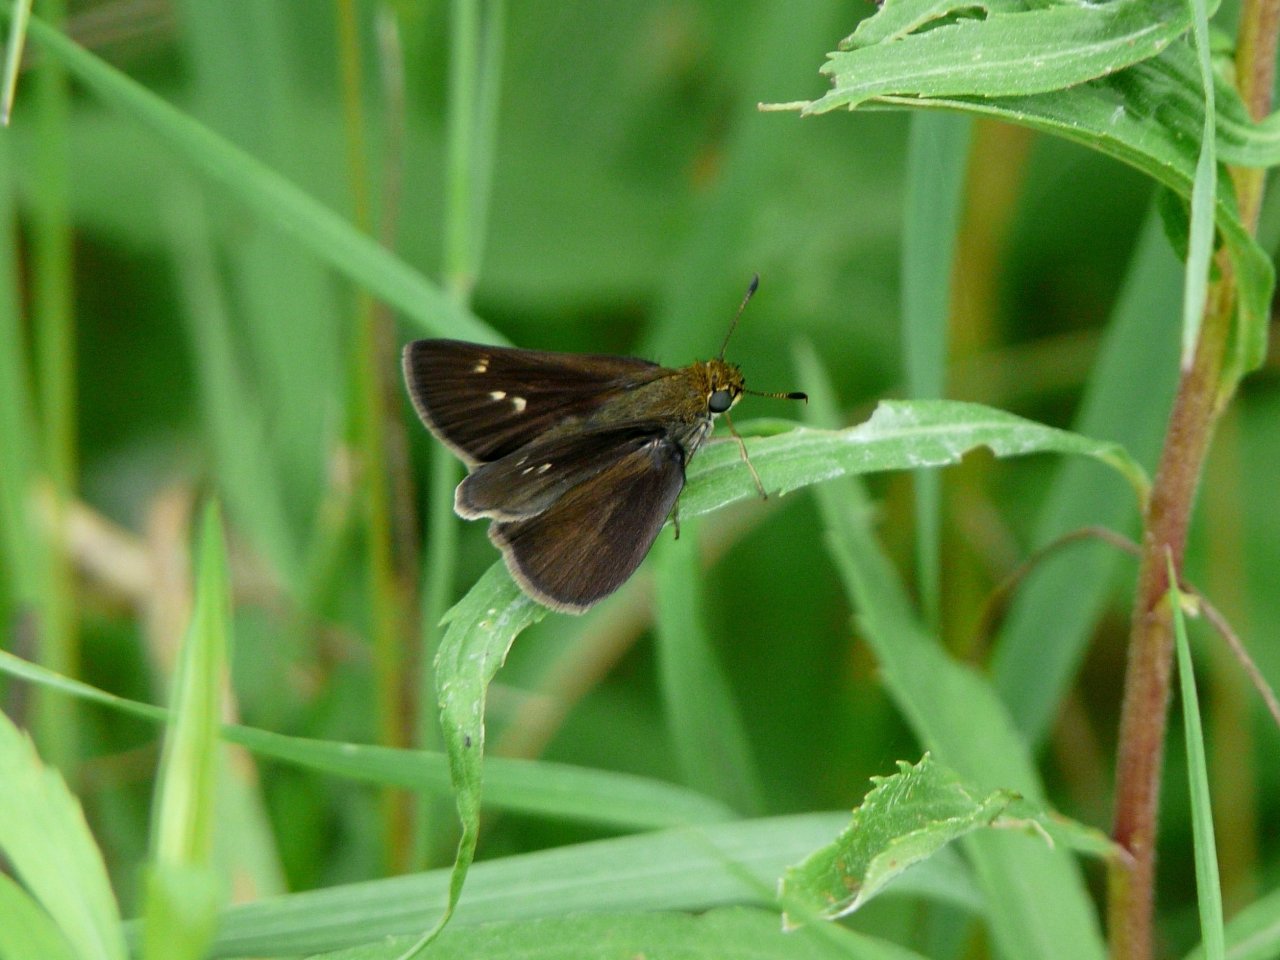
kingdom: Animalia
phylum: Arthropoda
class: Insecta
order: Lepidoptera
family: Hesperiidae
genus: Euphyes
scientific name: Euphyes vestris
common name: Dun Skipper
